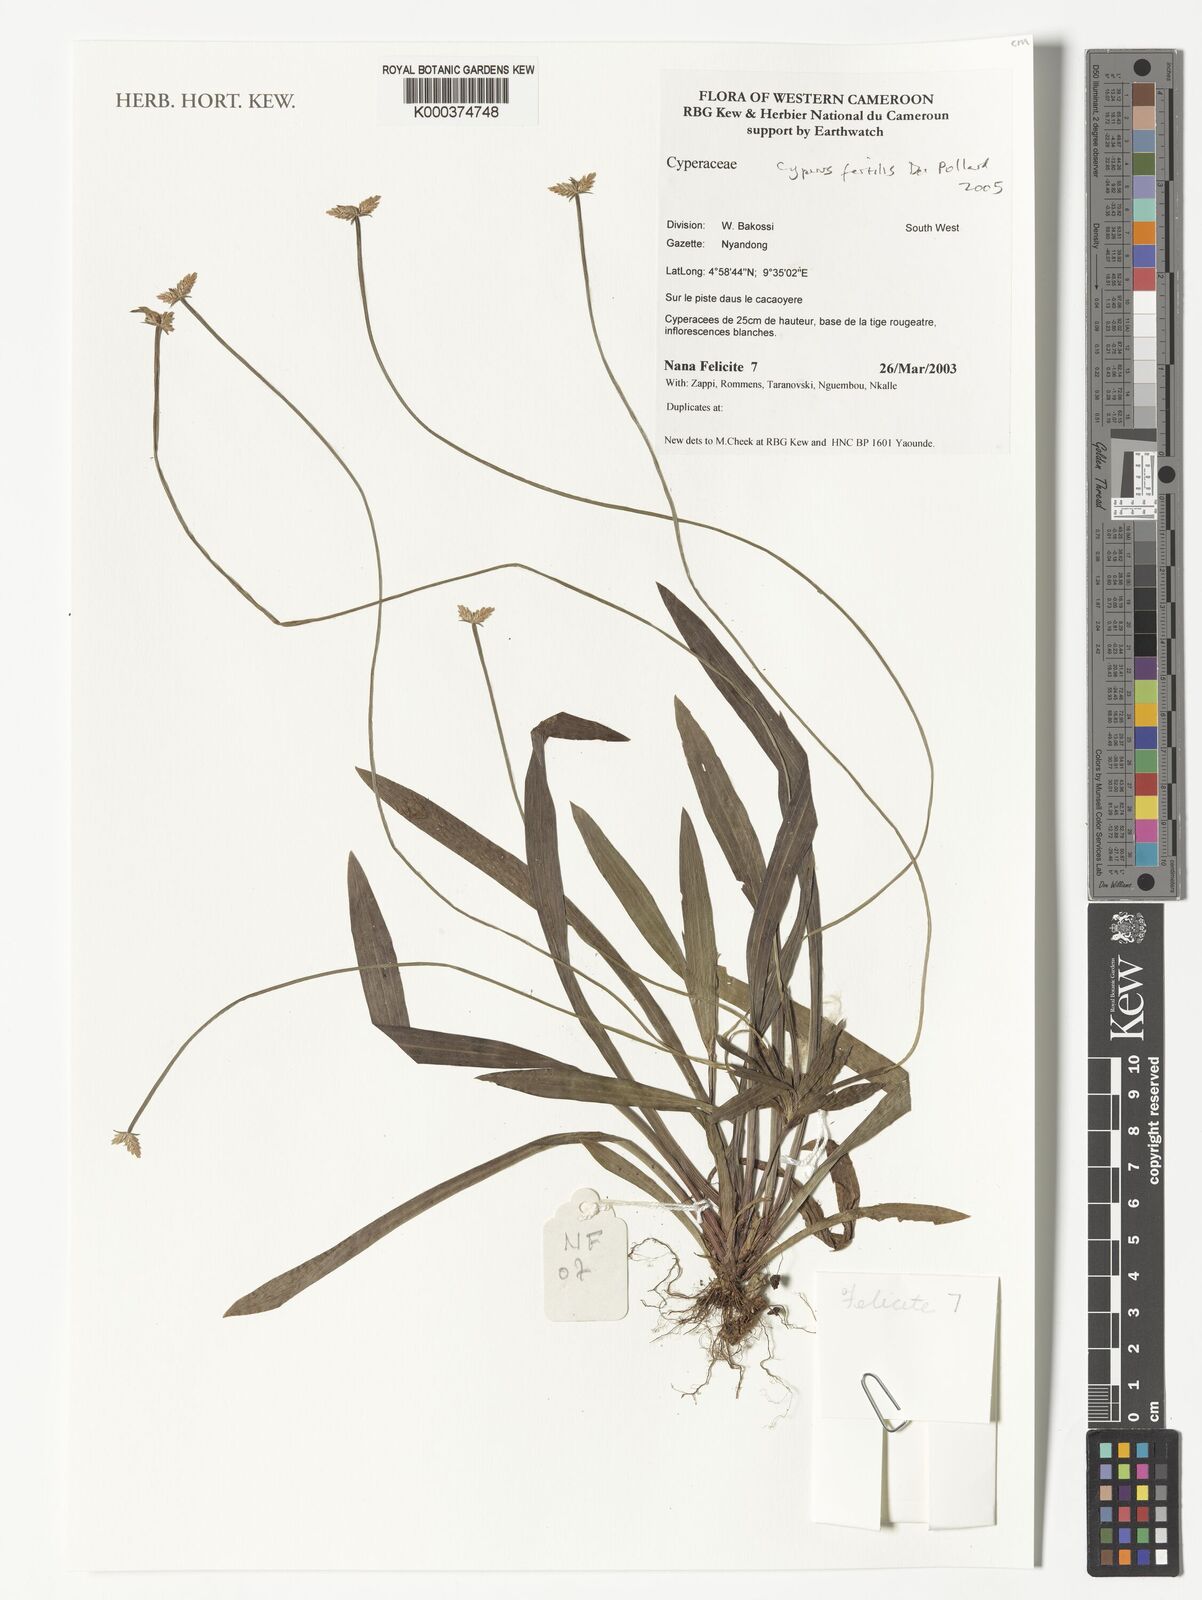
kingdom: Plantae
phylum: Tracheophyta
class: Liliopsida
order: Poales
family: Cyperaceae
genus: Cyperus
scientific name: Cyperus fertilis
